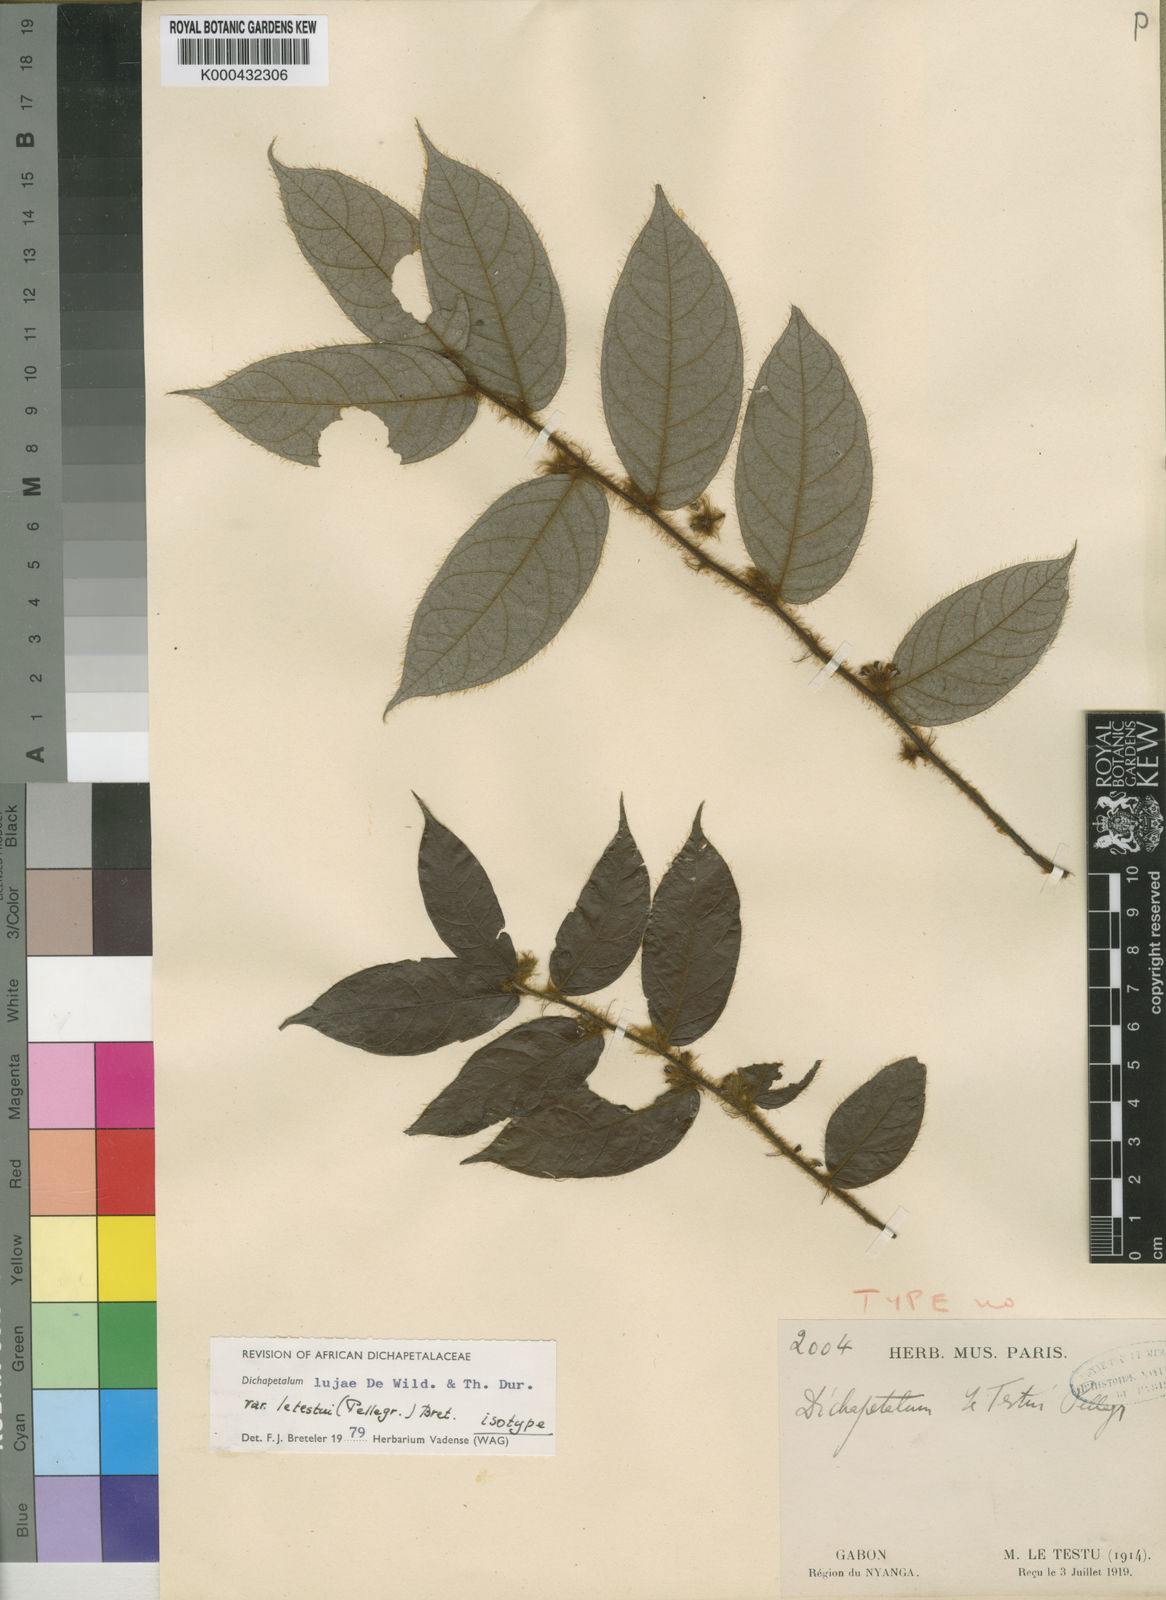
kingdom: Plantae
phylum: Tracheophyta
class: Magnoliopsida
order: Malpighiales
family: Dichapetalaceae
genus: Dichapetalum
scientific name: Dichapetalum lujae
